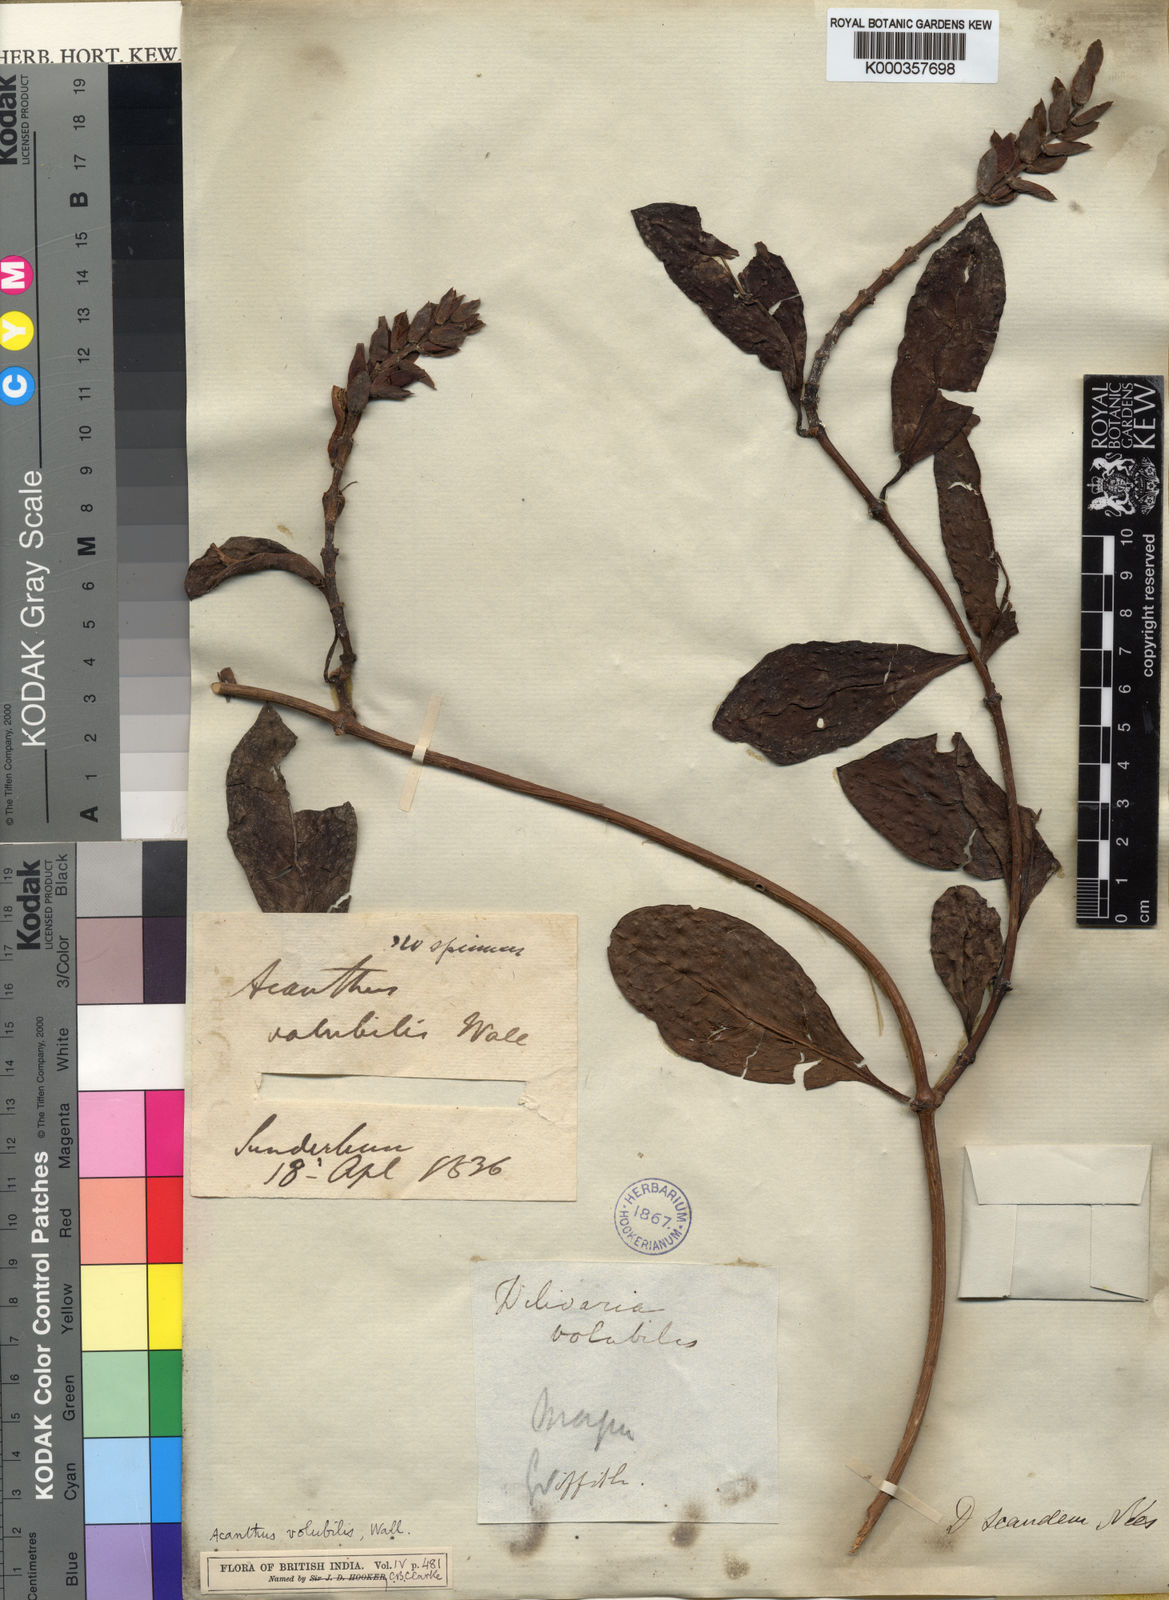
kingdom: Plantae
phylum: Tracheophyta
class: Magnoliopsida
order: Lamiales
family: Acanthaceae
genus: Acanthus
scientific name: Acanthus volubilis
